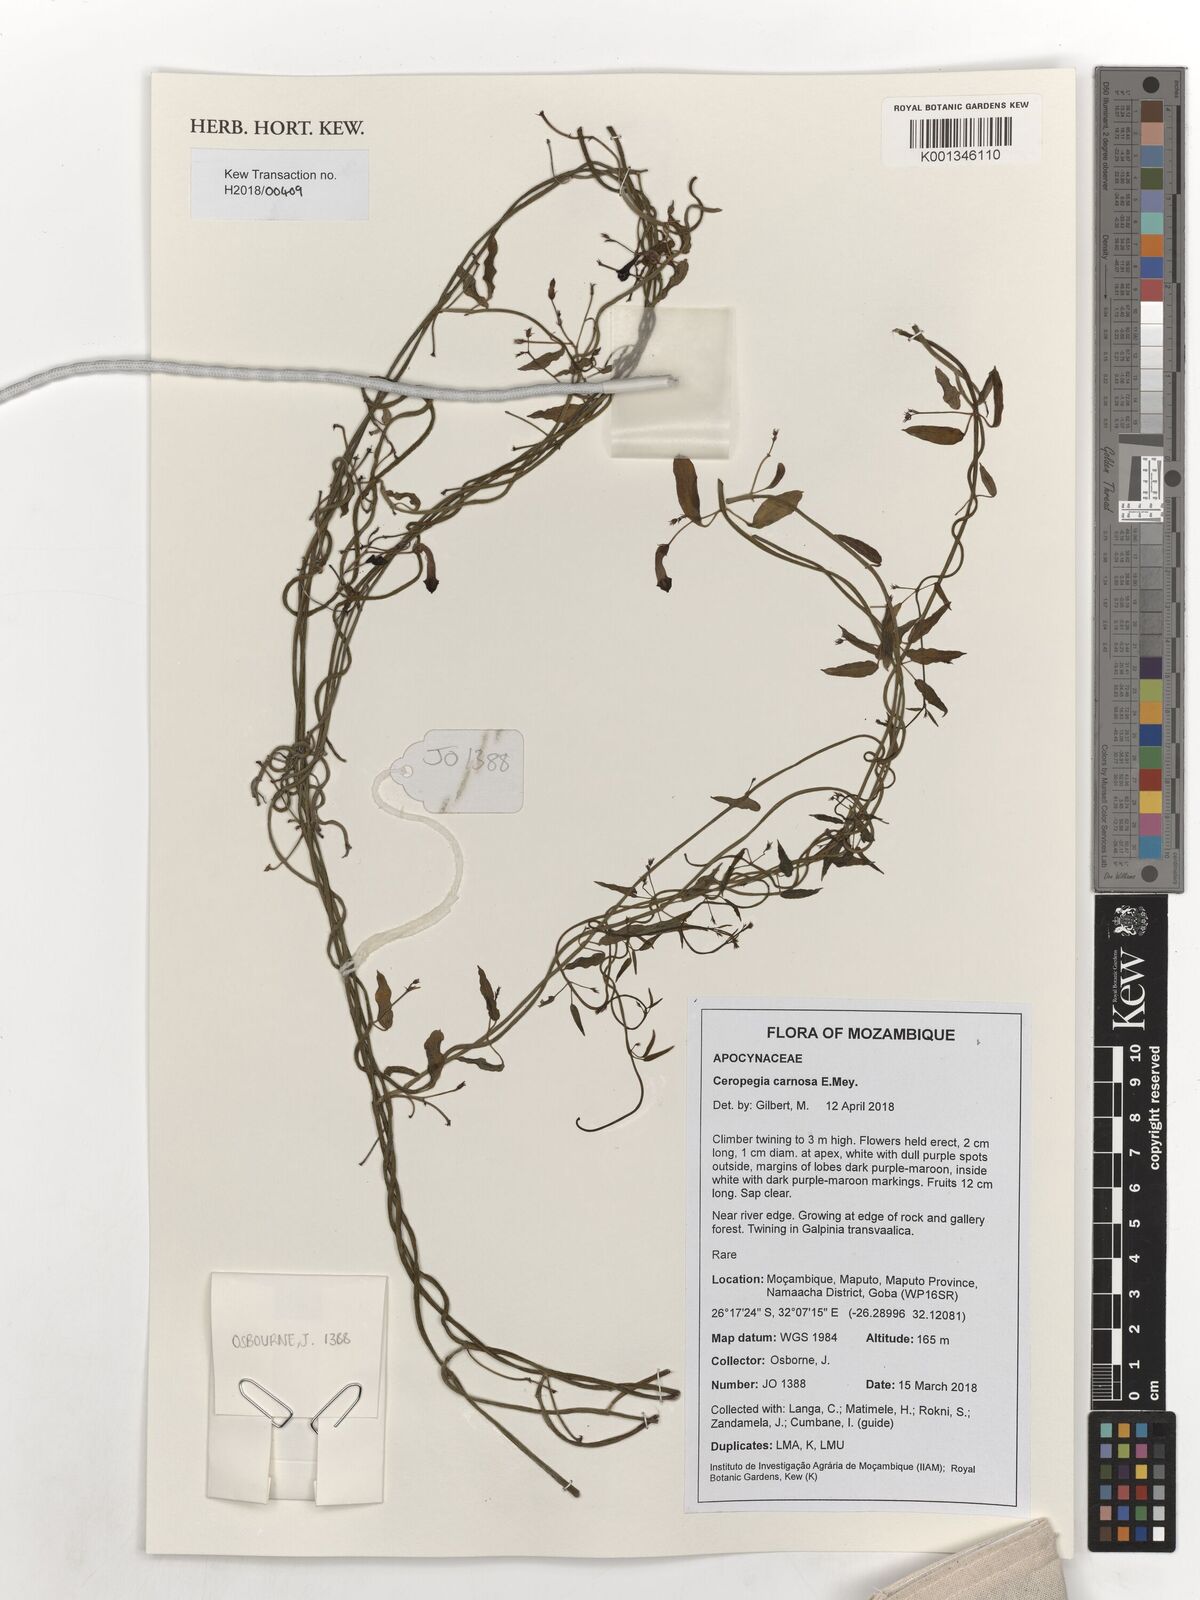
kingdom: Plantae
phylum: Tracheophyta
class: Magnoliopsida
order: Gentianales
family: Apocynaceae
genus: Ceropegia
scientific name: Ceropegia carnosa
